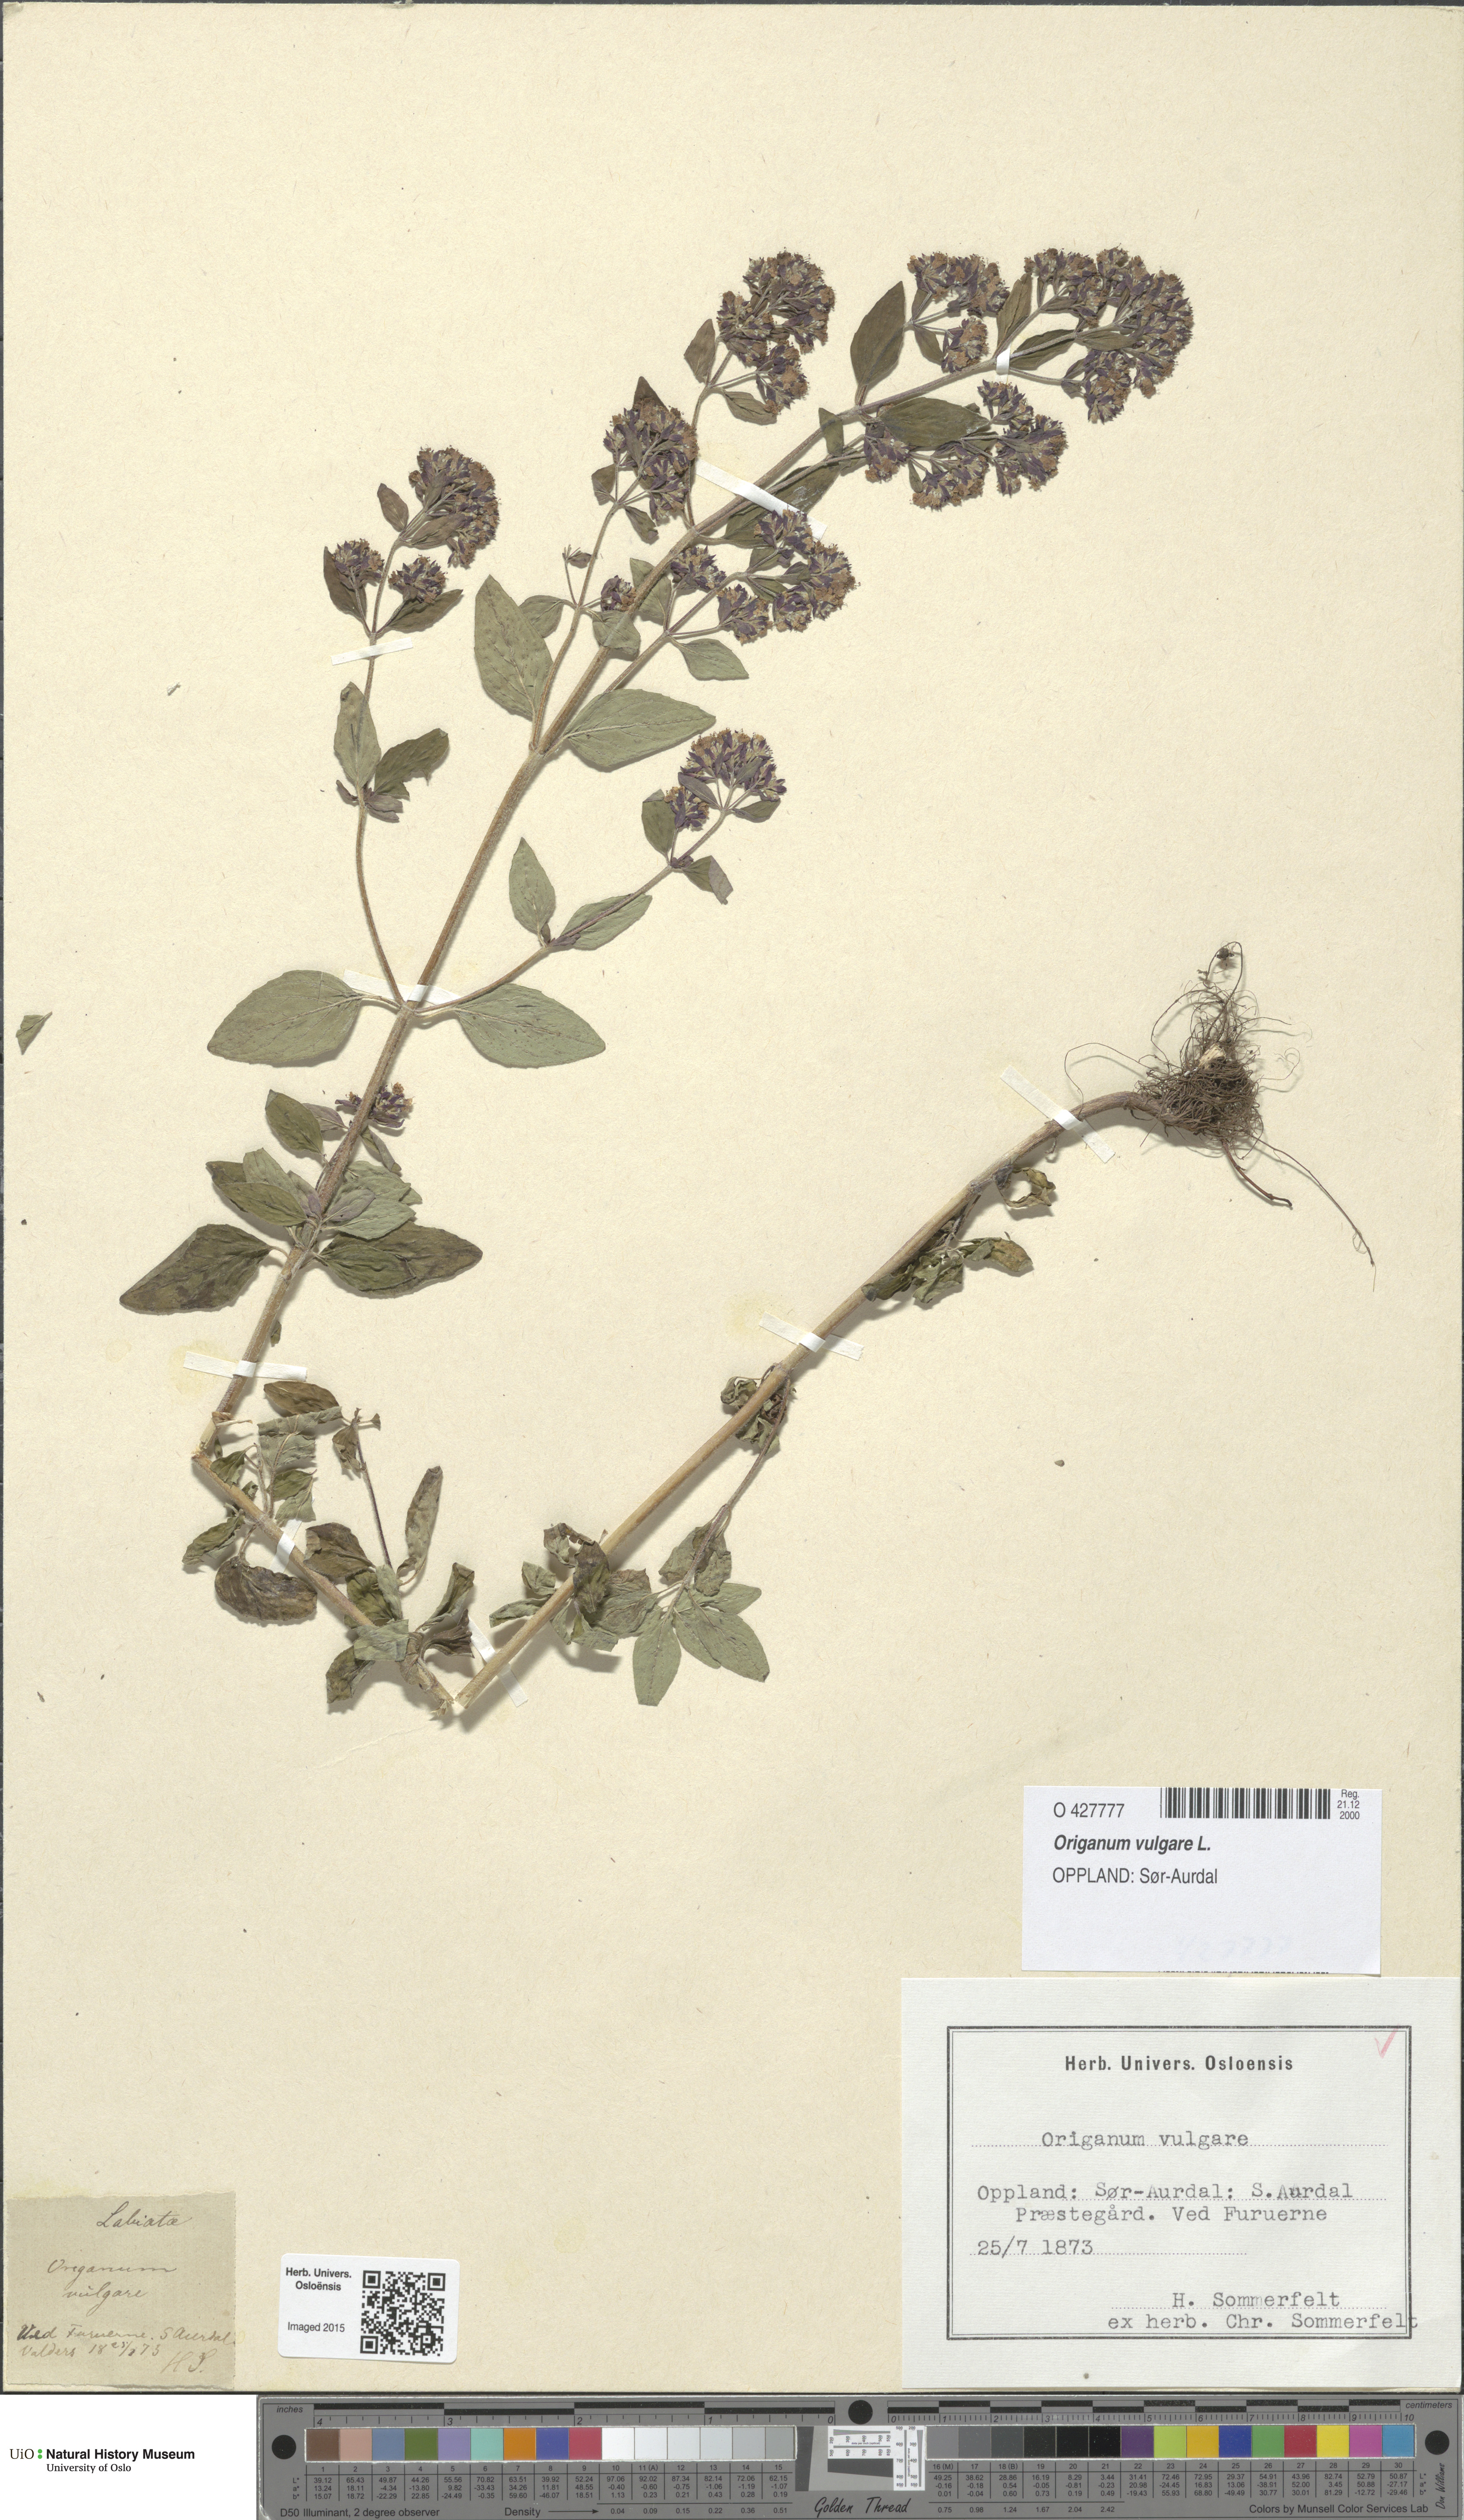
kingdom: Plantae
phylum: Tracheophyta
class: Magnoliopsida
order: Lamiales
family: Lamiaceae
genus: Origanum
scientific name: Origanum vulgare
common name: Wild marjoram
